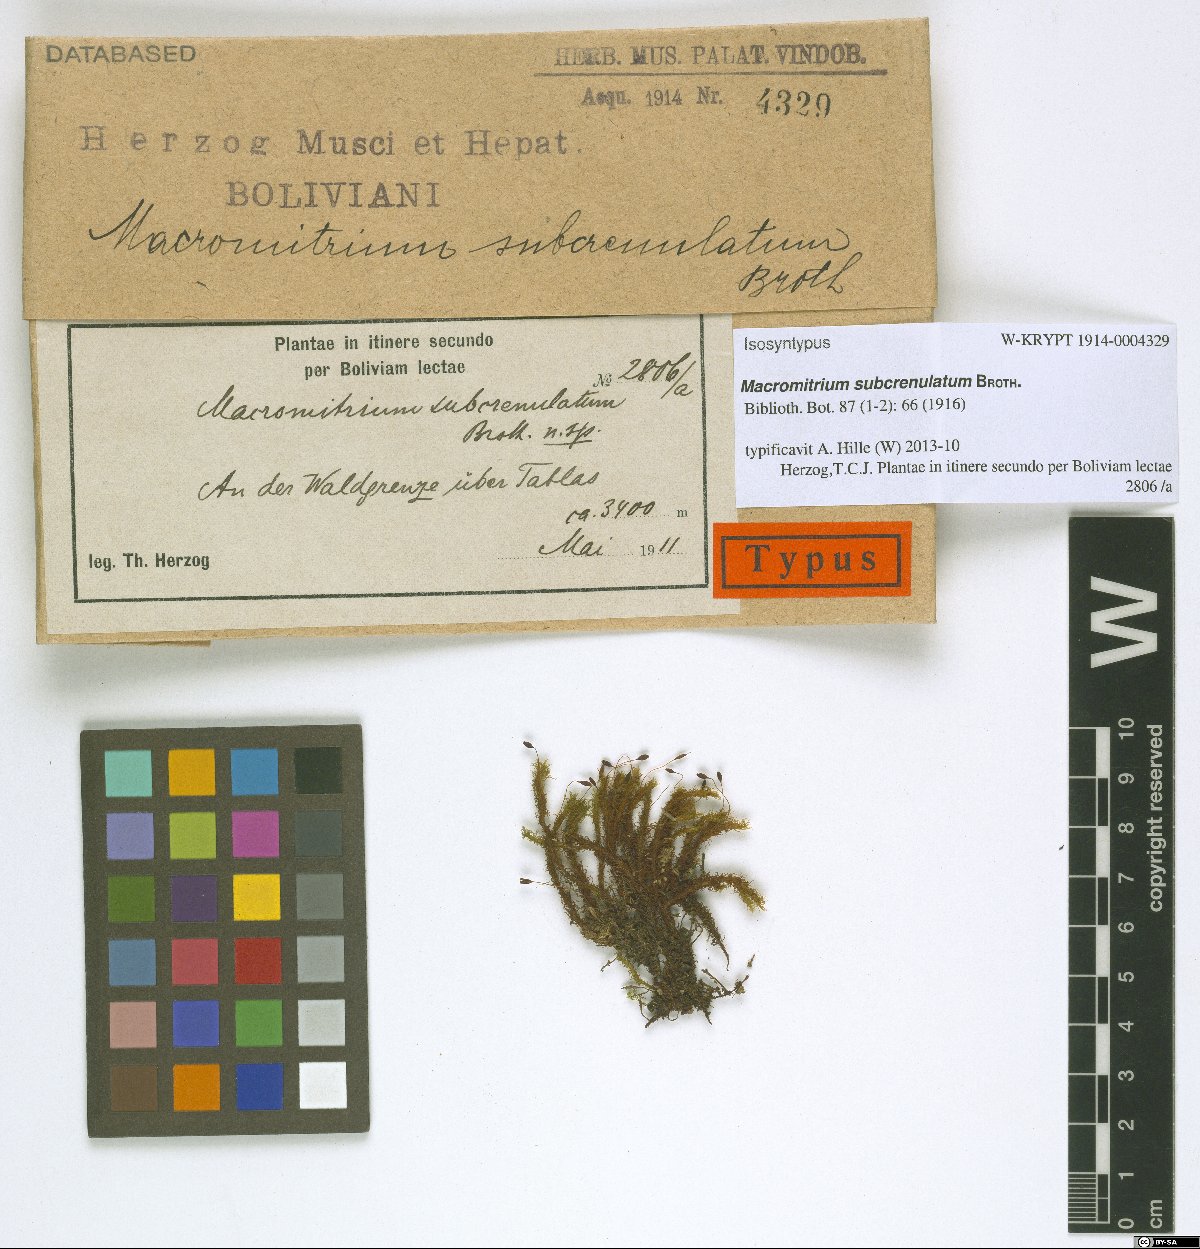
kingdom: Plantae
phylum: Bryophyta
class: Bryopsida
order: Orthotrichales
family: Orthotrichaceae
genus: Macromitrium
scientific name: Macromitrium subcrenulatum
